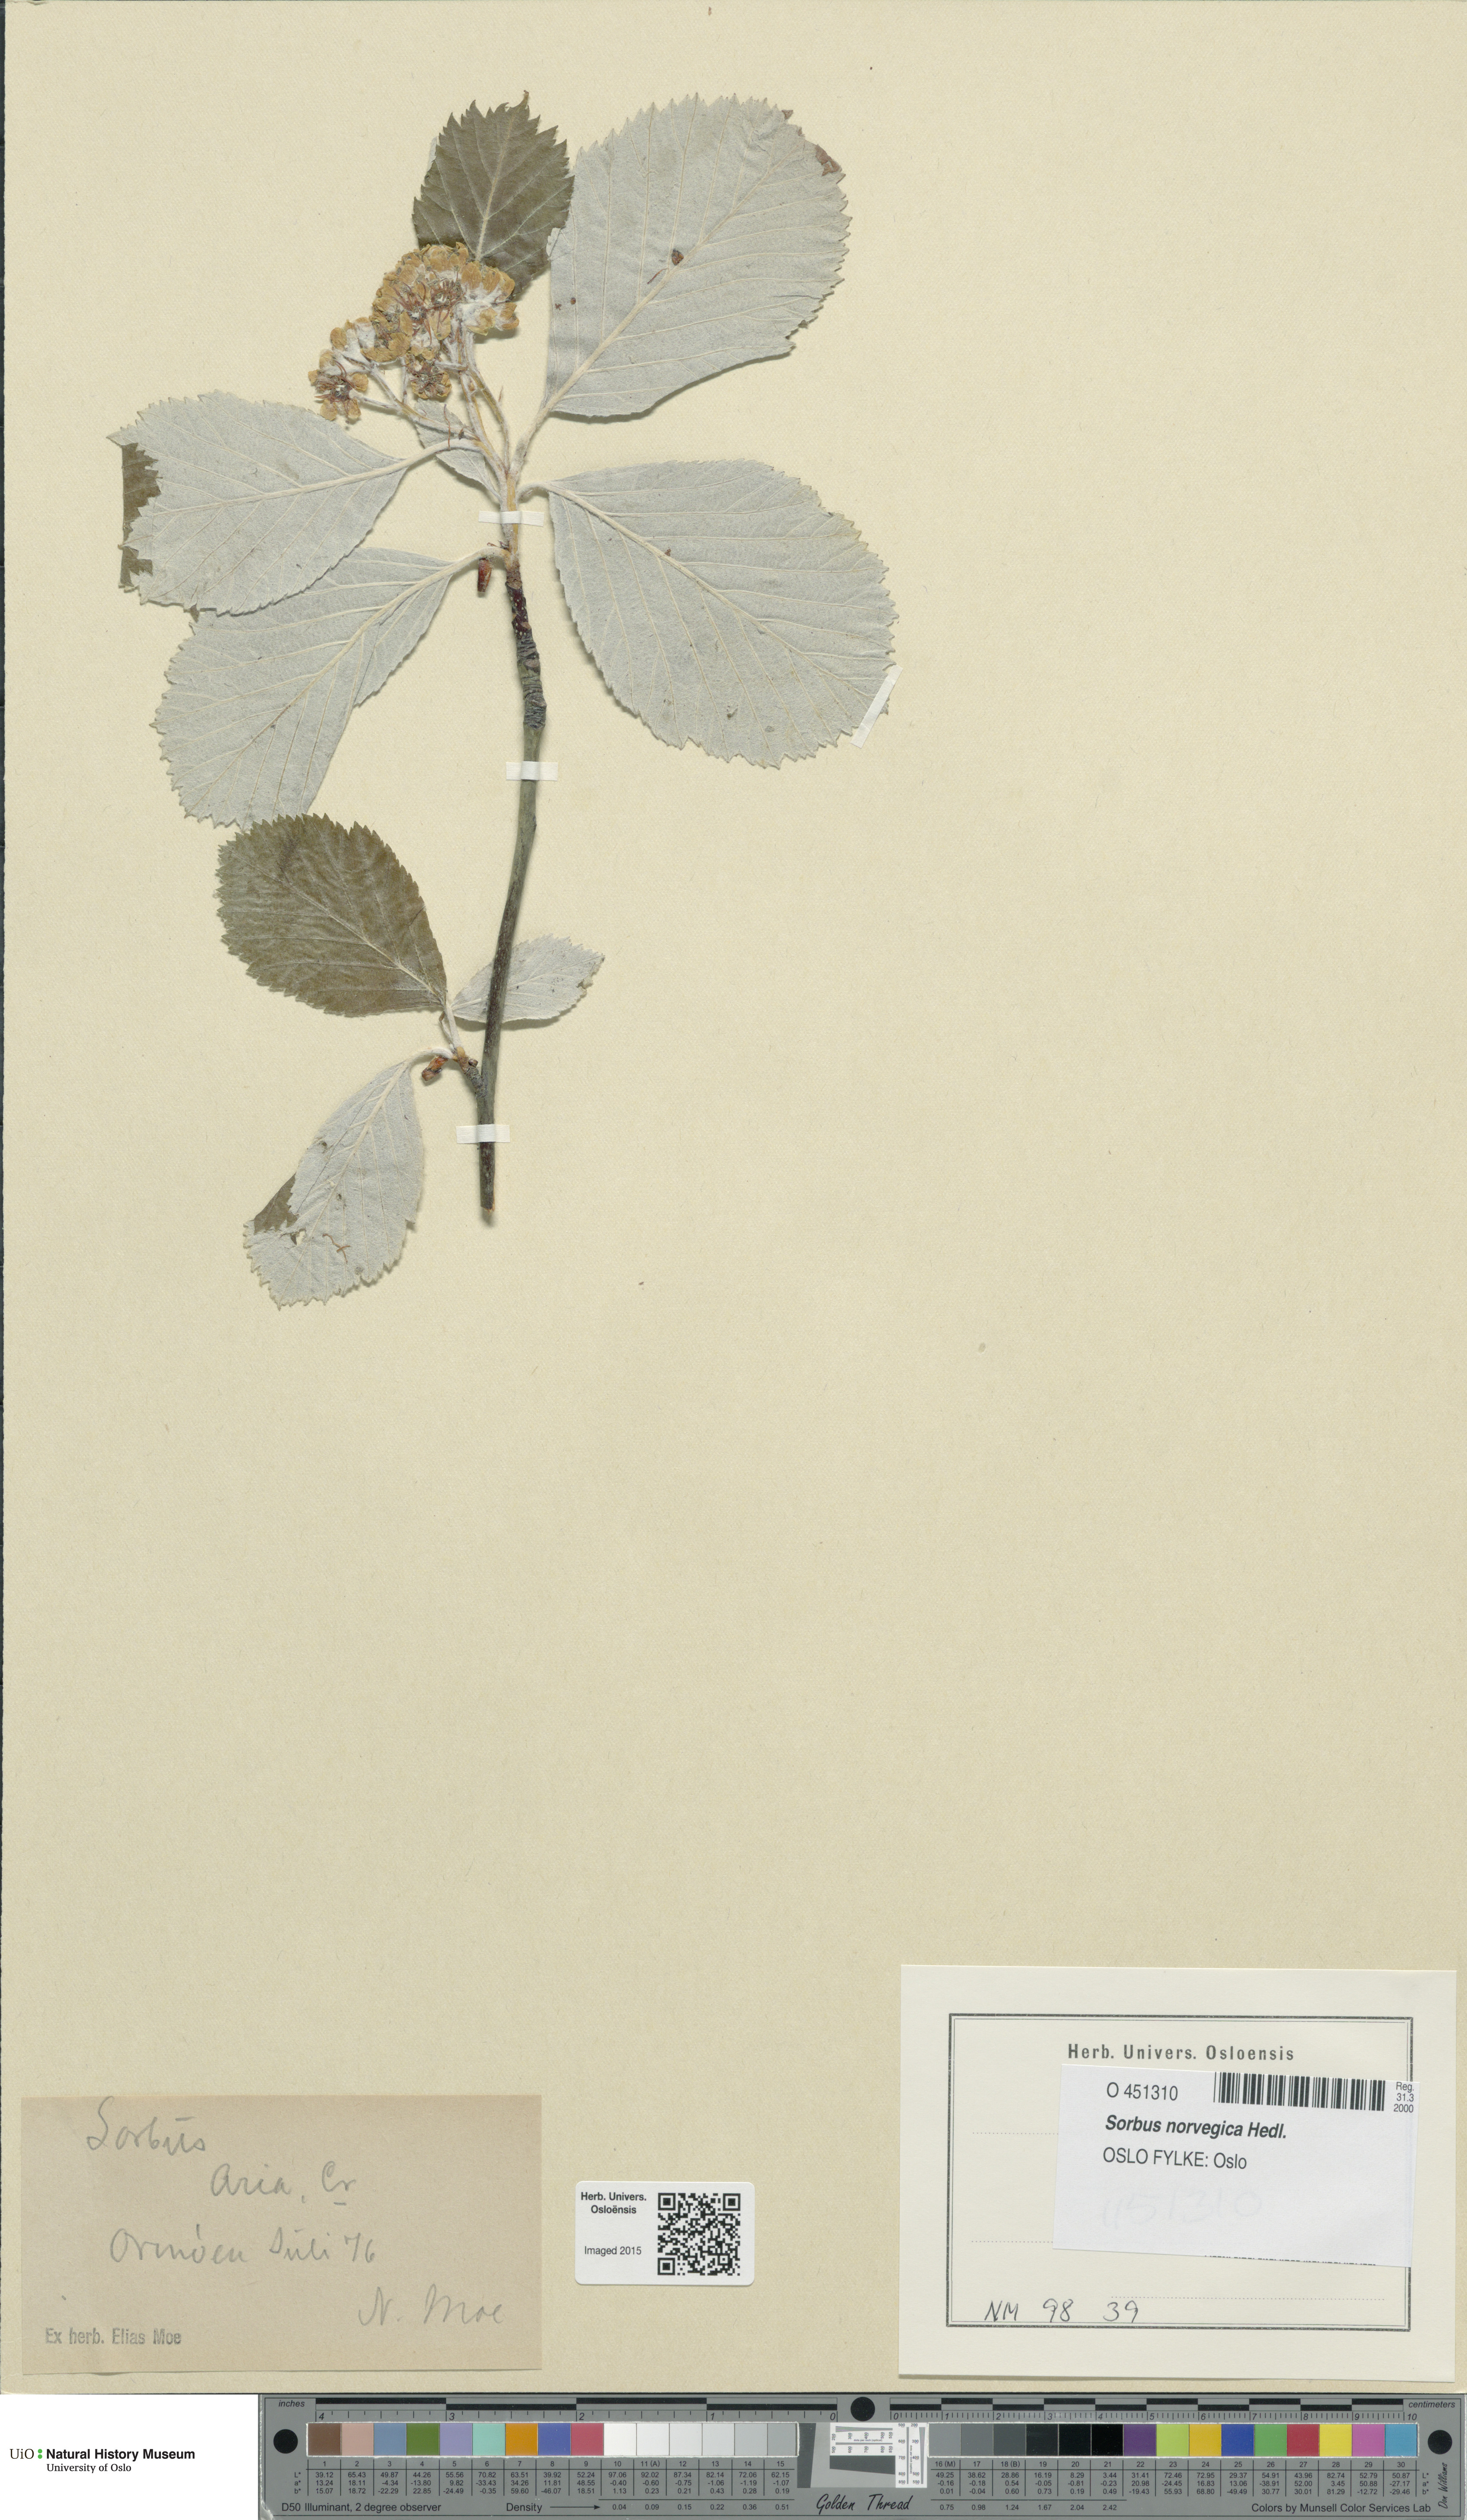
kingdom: Plantae
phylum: Tracheophyta
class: Magnoliopsida
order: Rosales
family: Rosaceae
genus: Aria
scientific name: Aria graeca
